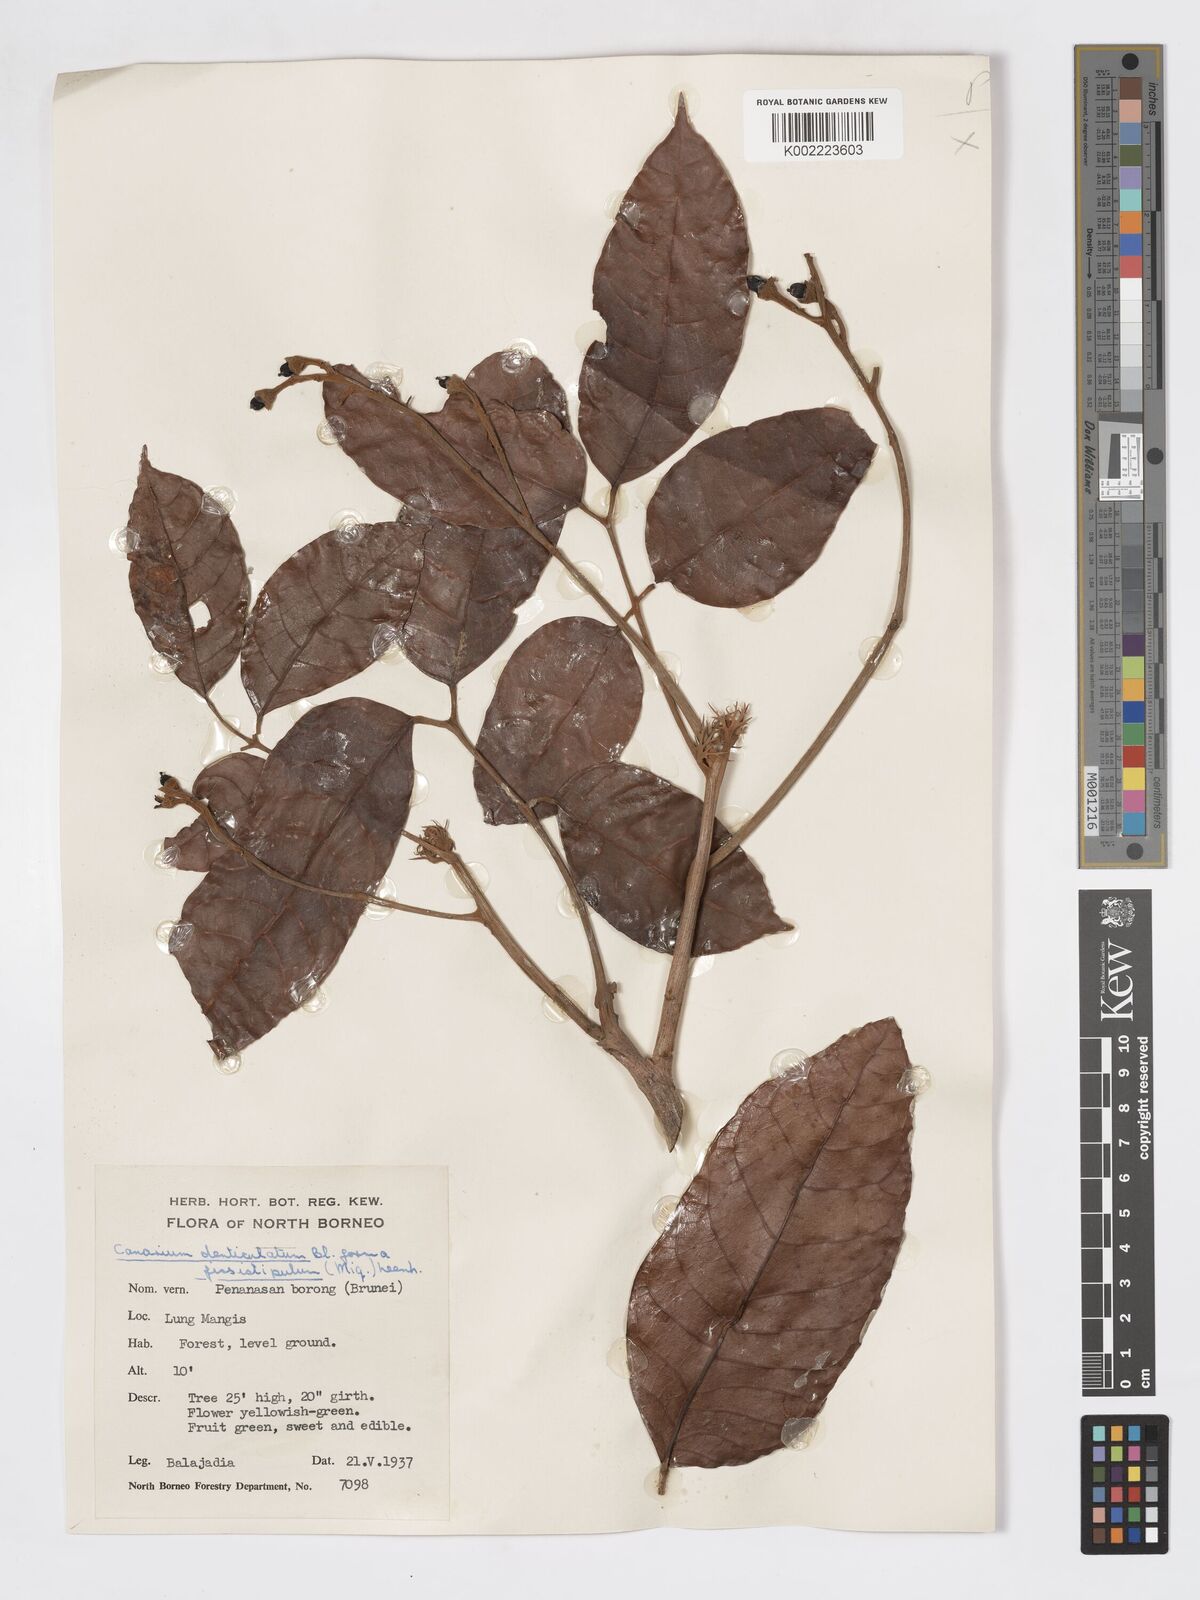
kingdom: Plantae
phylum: Tracheophyta
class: Magnoliopsida
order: Sapindales
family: Burseraceae
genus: Canarium
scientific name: Canarium denticulatum
